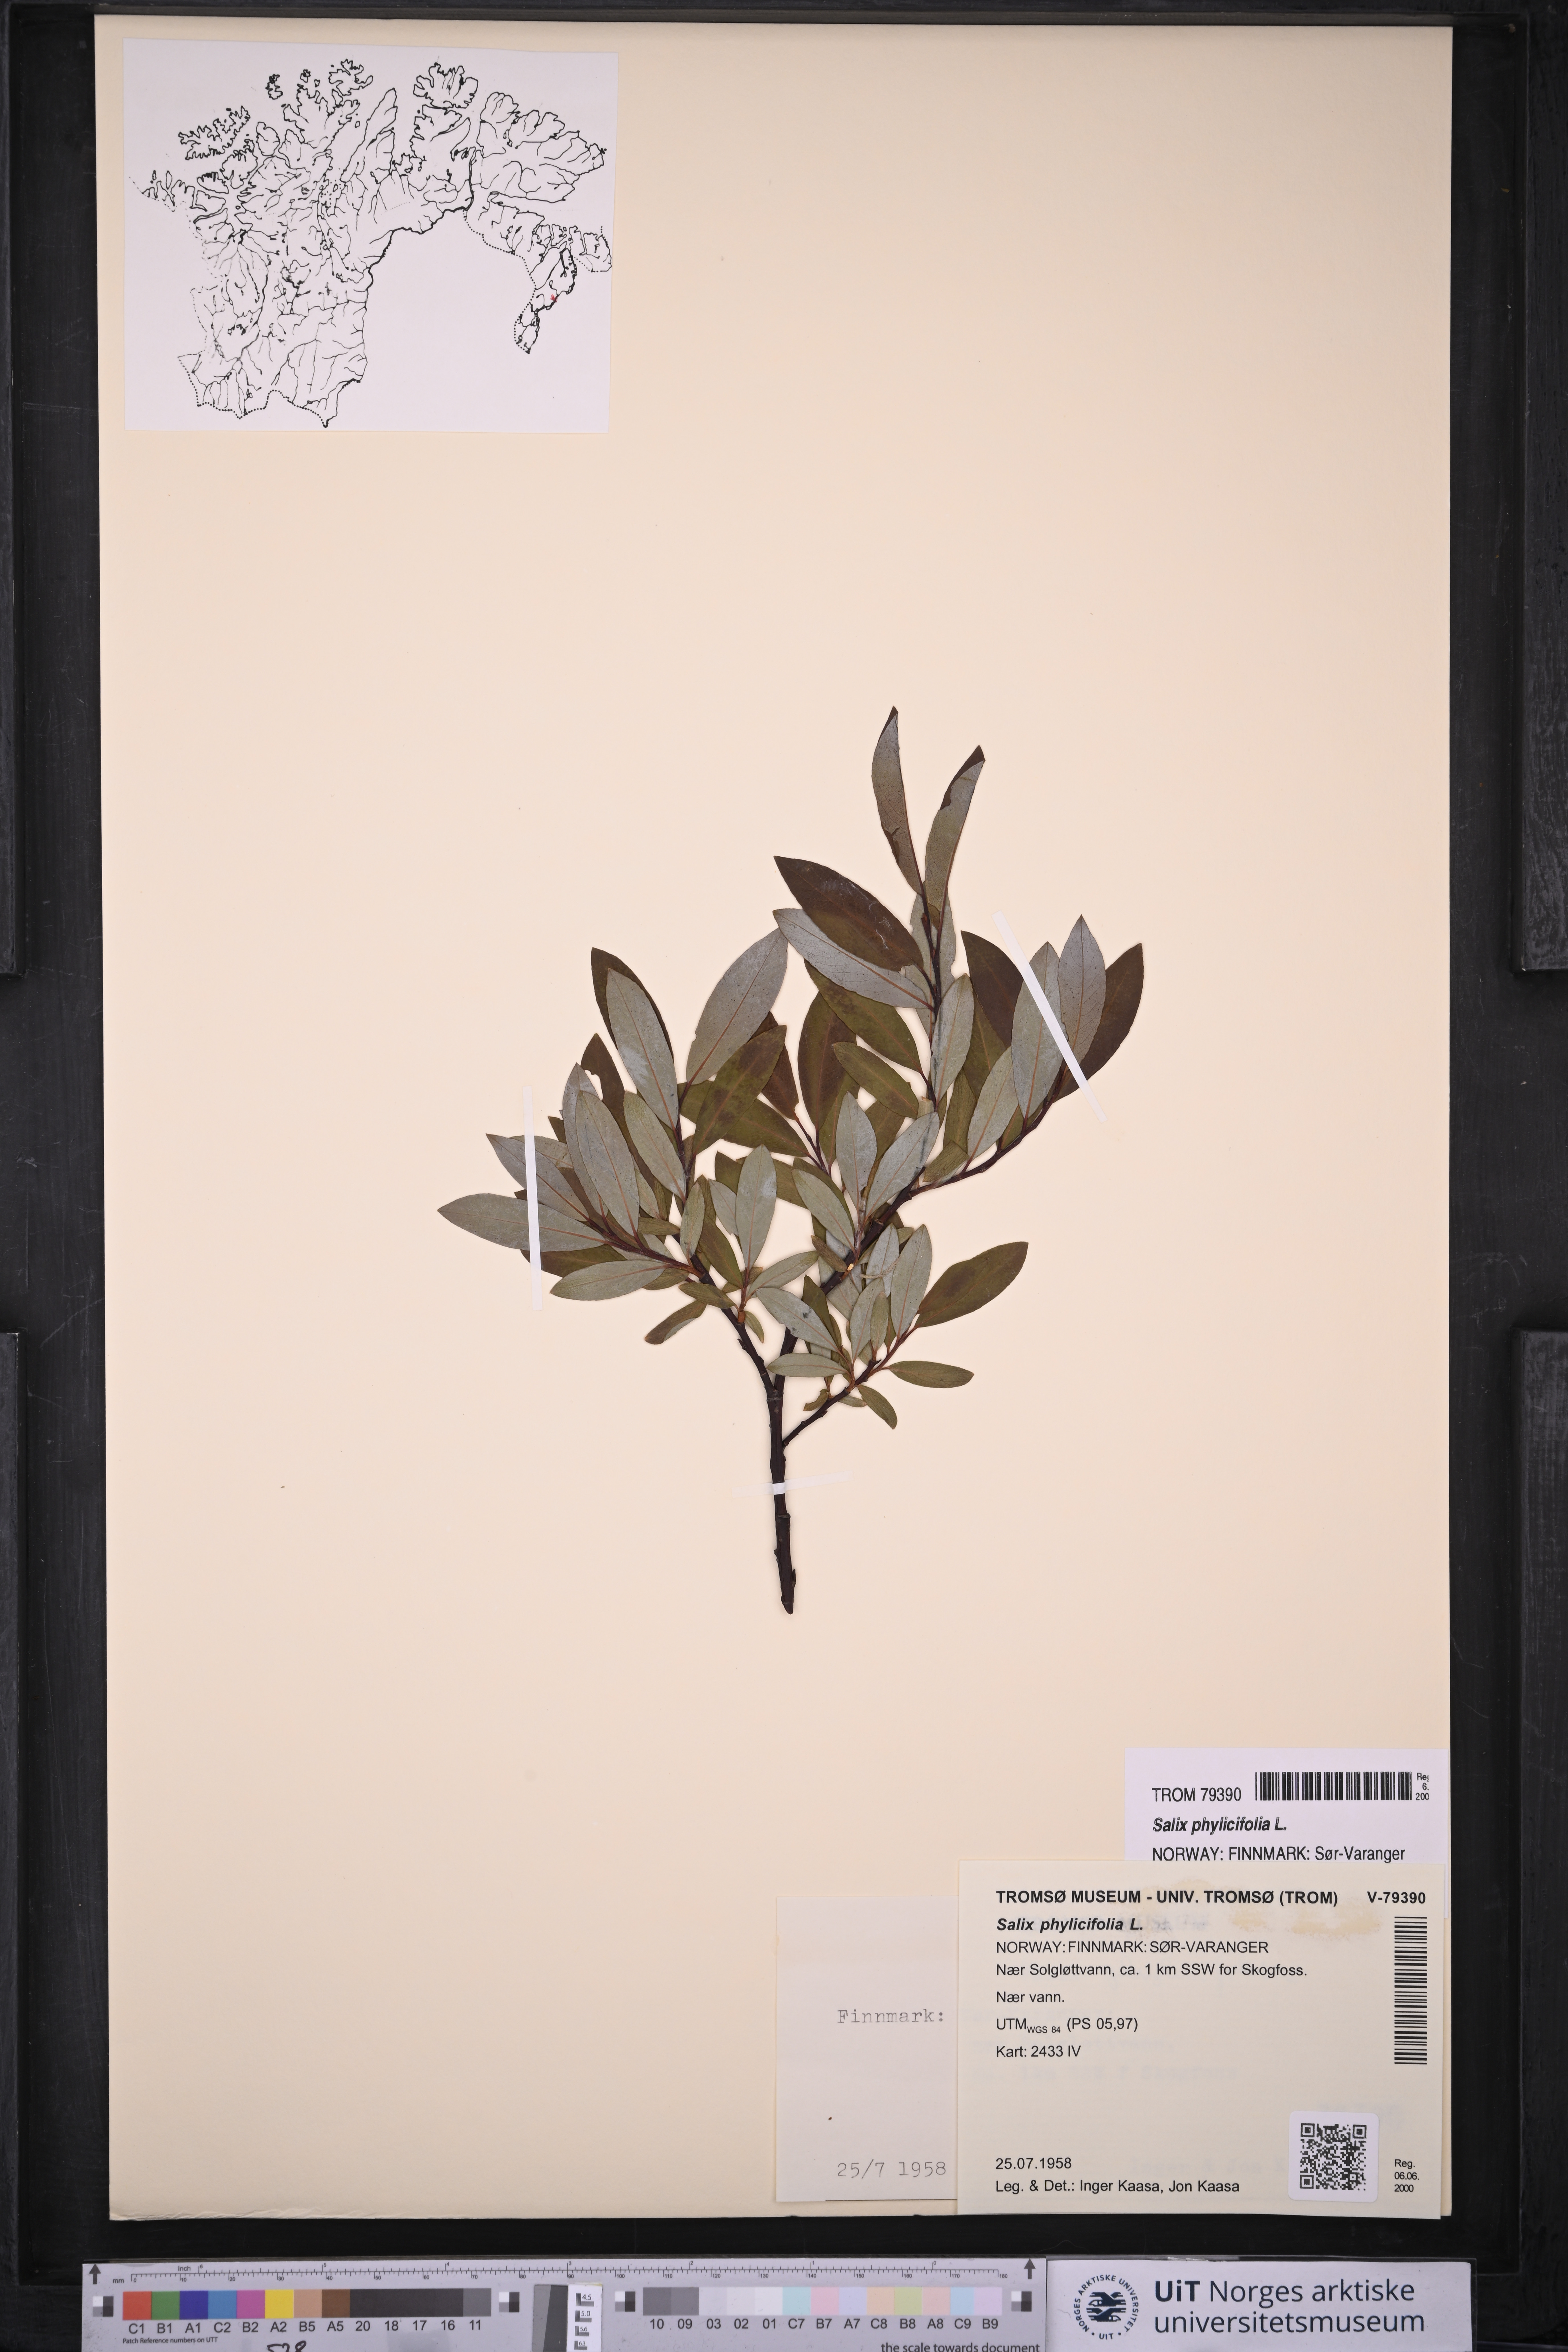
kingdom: Plantae
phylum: Tracheophyta
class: Magnoliopsida
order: Malpighiales
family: Salicaceae
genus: Salix
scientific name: Salix phylicifolia
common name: Tea-leaved willow
